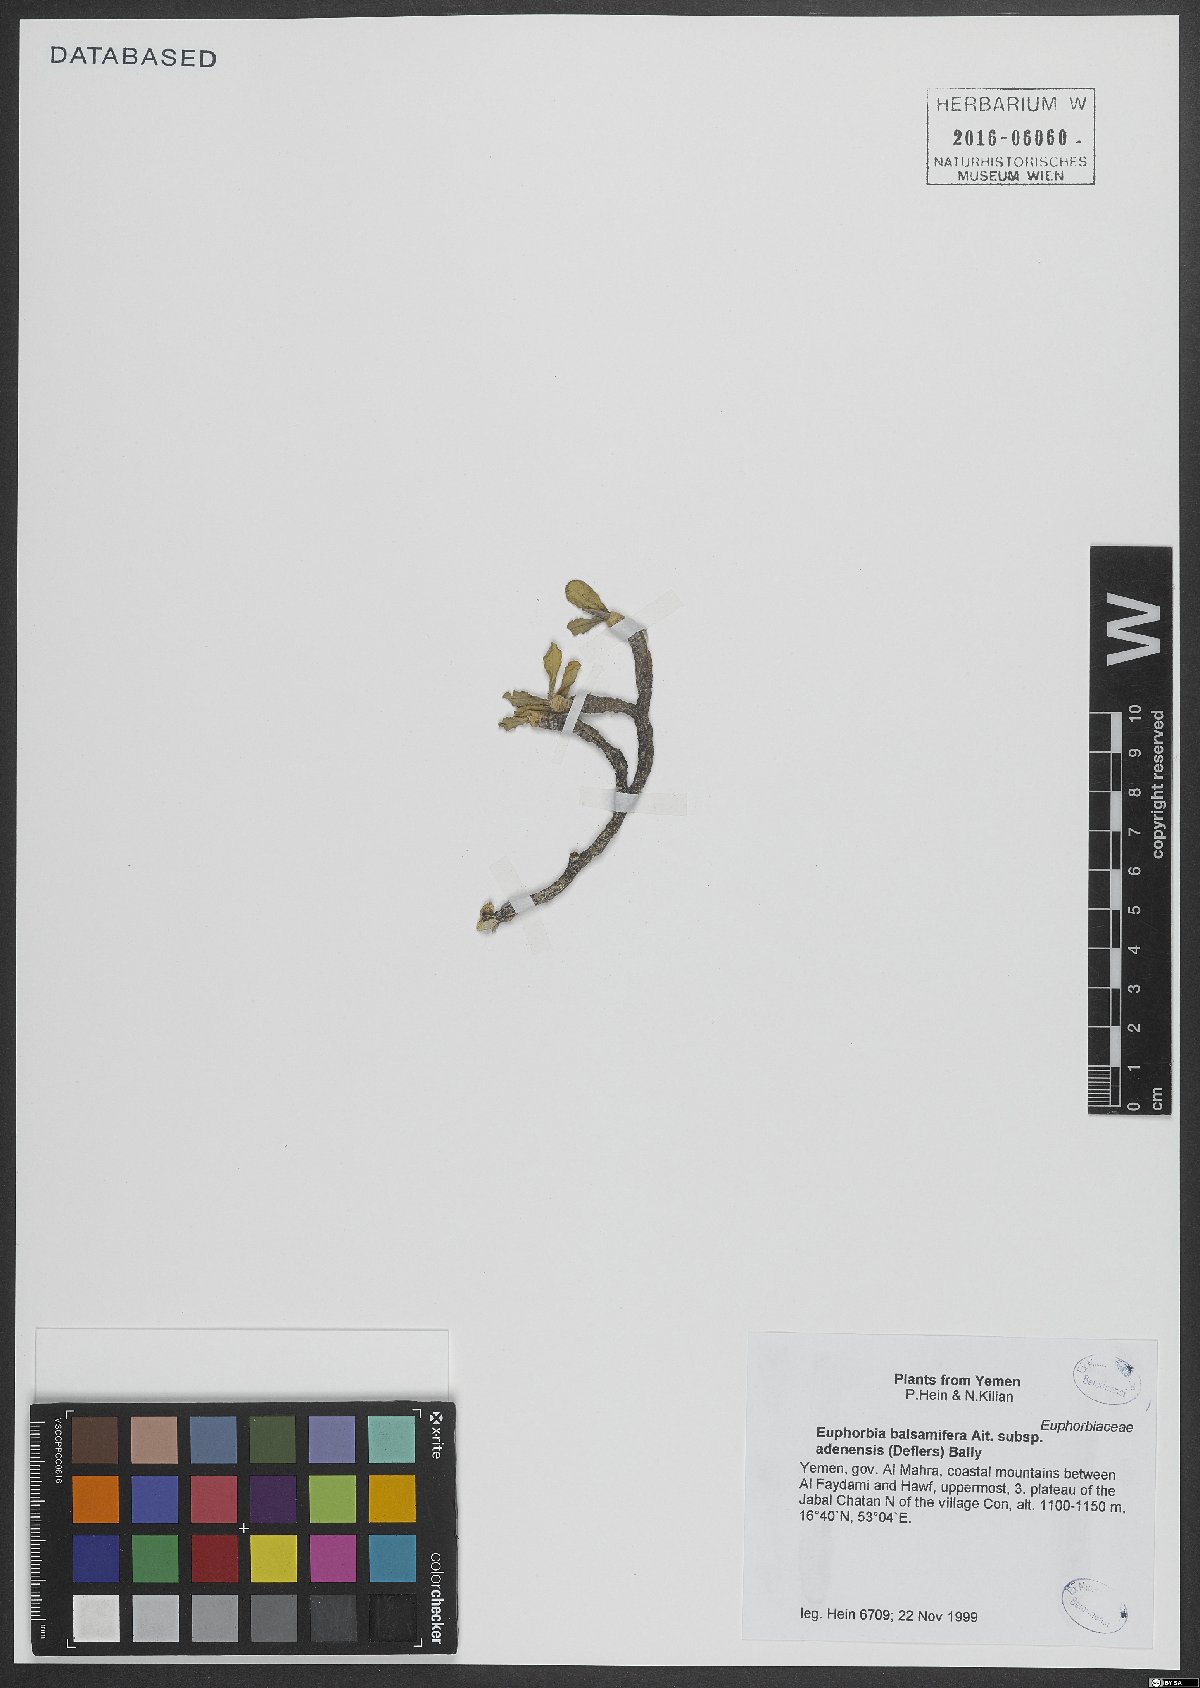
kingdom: Plantae
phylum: Tracheophyta
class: Magnoliopsida
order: Malpighiales
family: Euphorbiaceae
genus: Euphorbia
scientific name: Euphorbia adenensis
